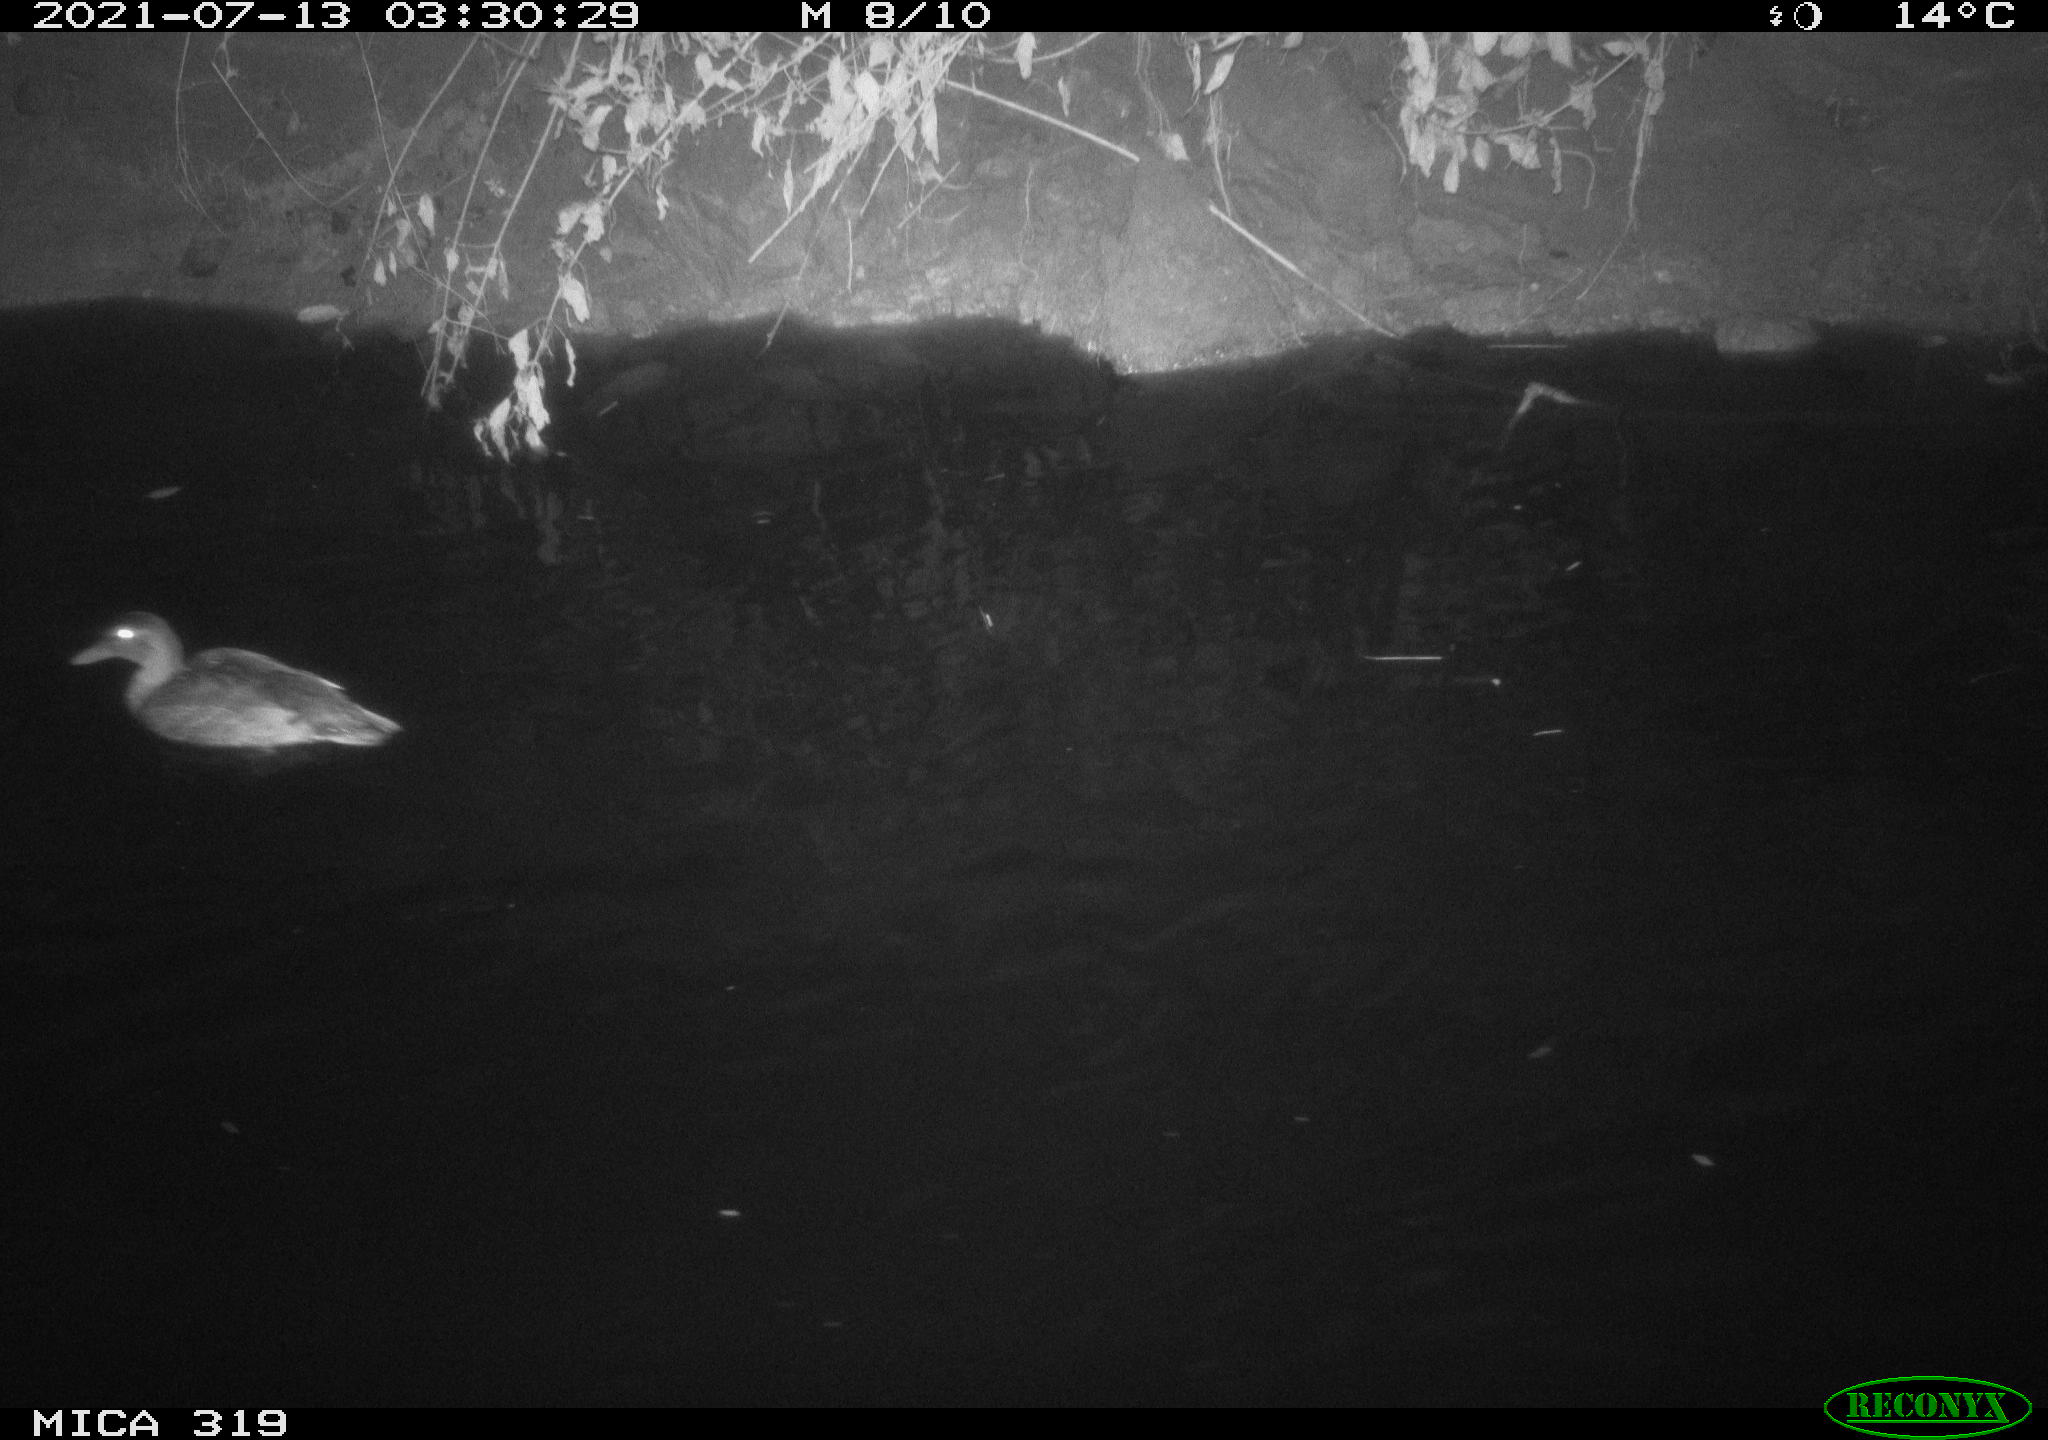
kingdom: Animalia
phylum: Chordata
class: Aves
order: Anseriformes
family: Anatidae
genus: Anas
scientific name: Anas platyrhynchos
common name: Mallard
